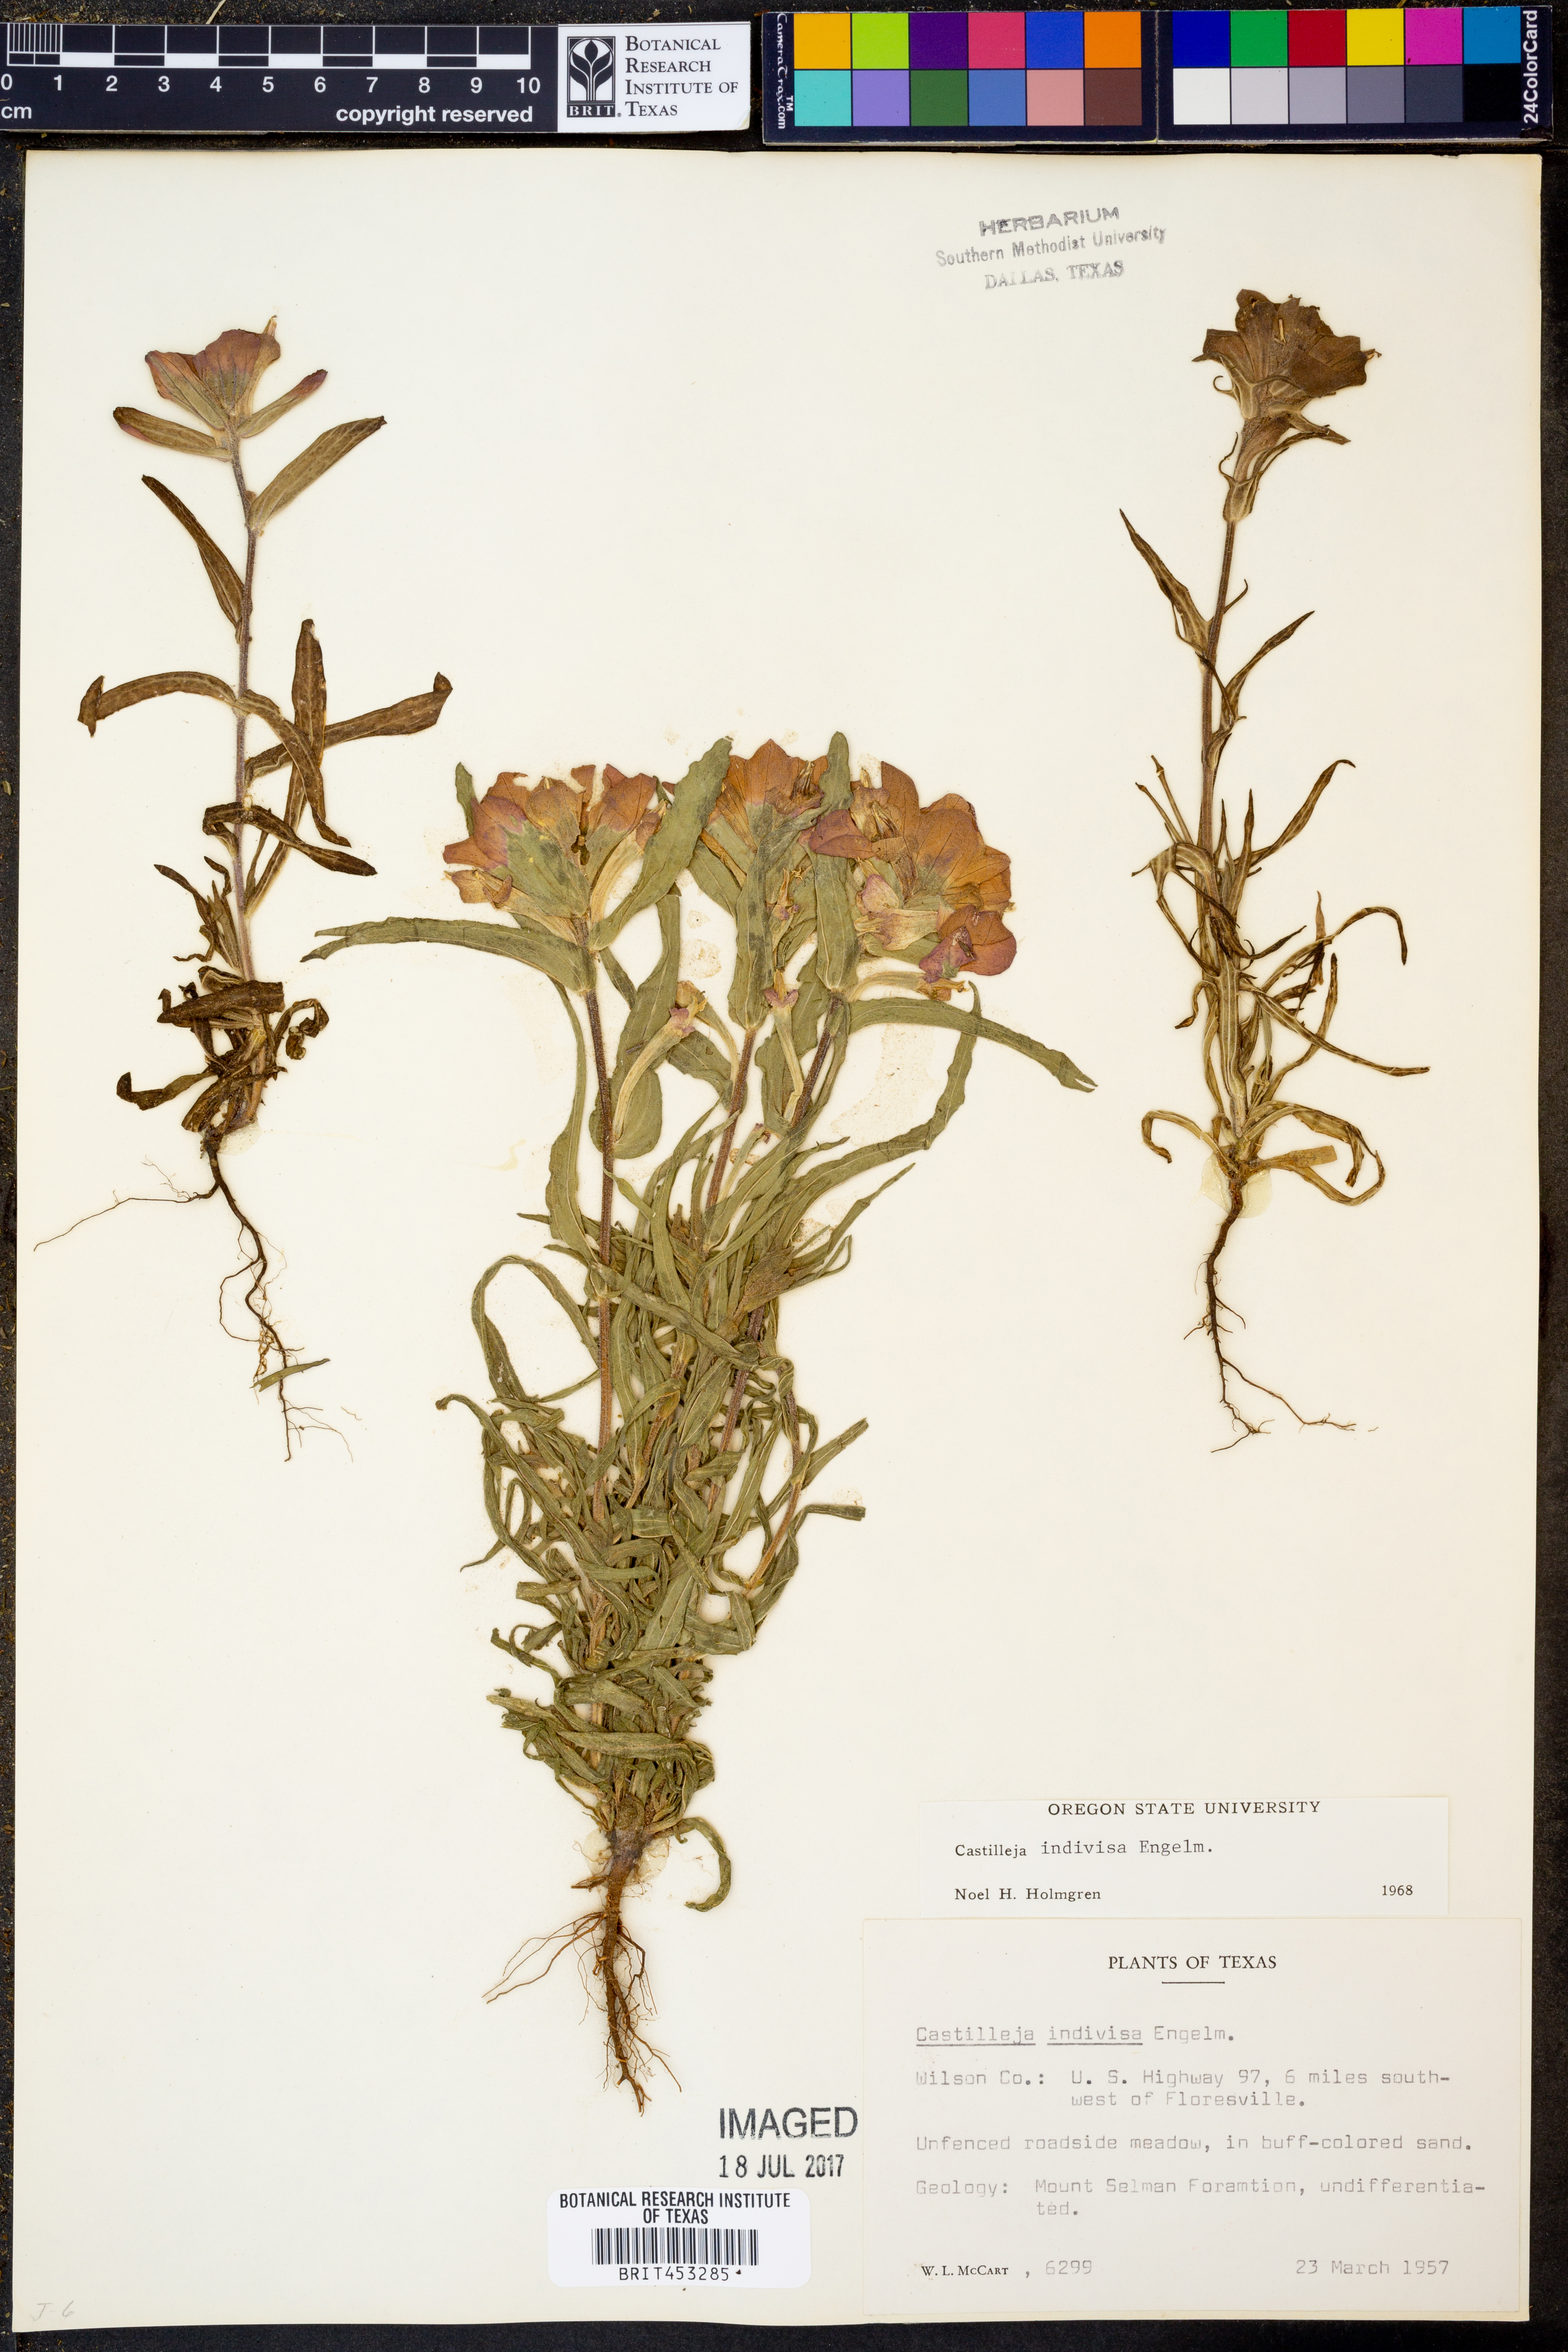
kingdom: Plantae
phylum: Tracheophyta
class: Magnoliopsida
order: Lamiales
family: Orobanchaceae
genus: Castilleja
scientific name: Castilleja indivisa
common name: Texas paintbrush
